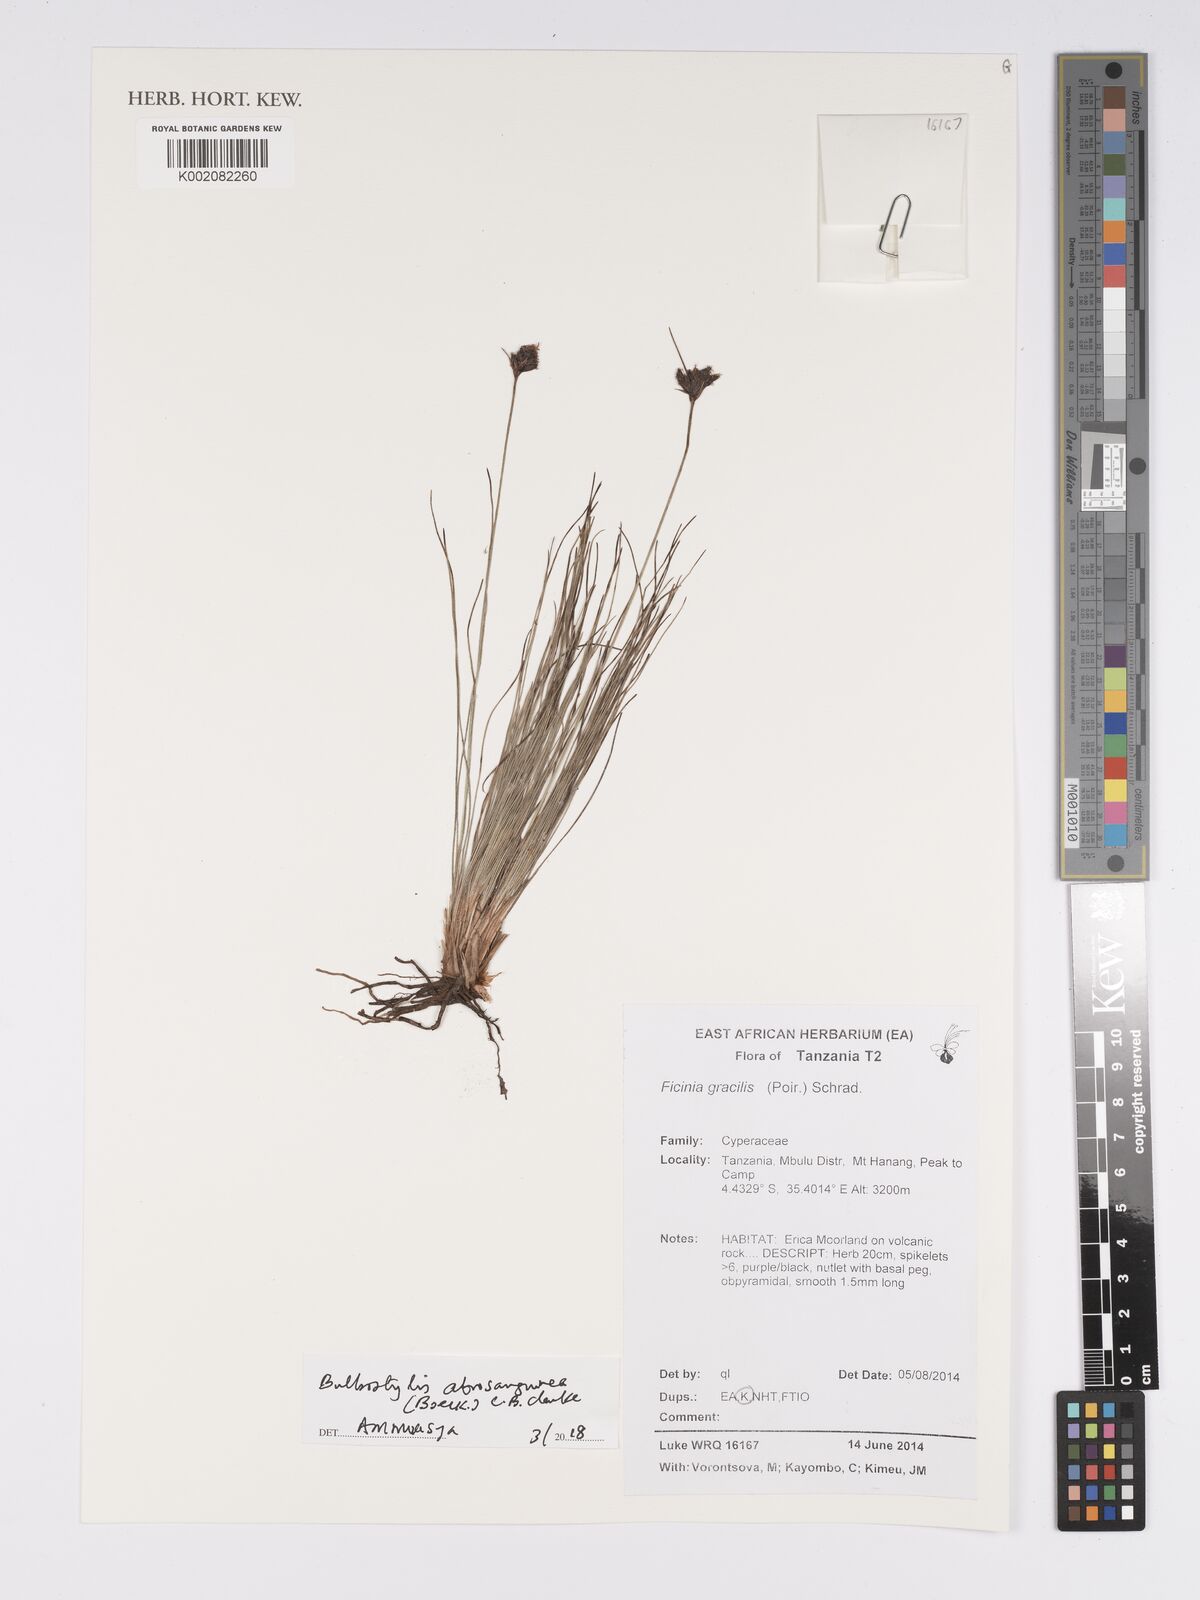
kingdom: Plantae
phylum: Tracheophyta
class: Liliopsida
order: Poales
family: Cyperaceae
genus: Bulbostylis
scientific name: Bulbostylis atrosanguinea
